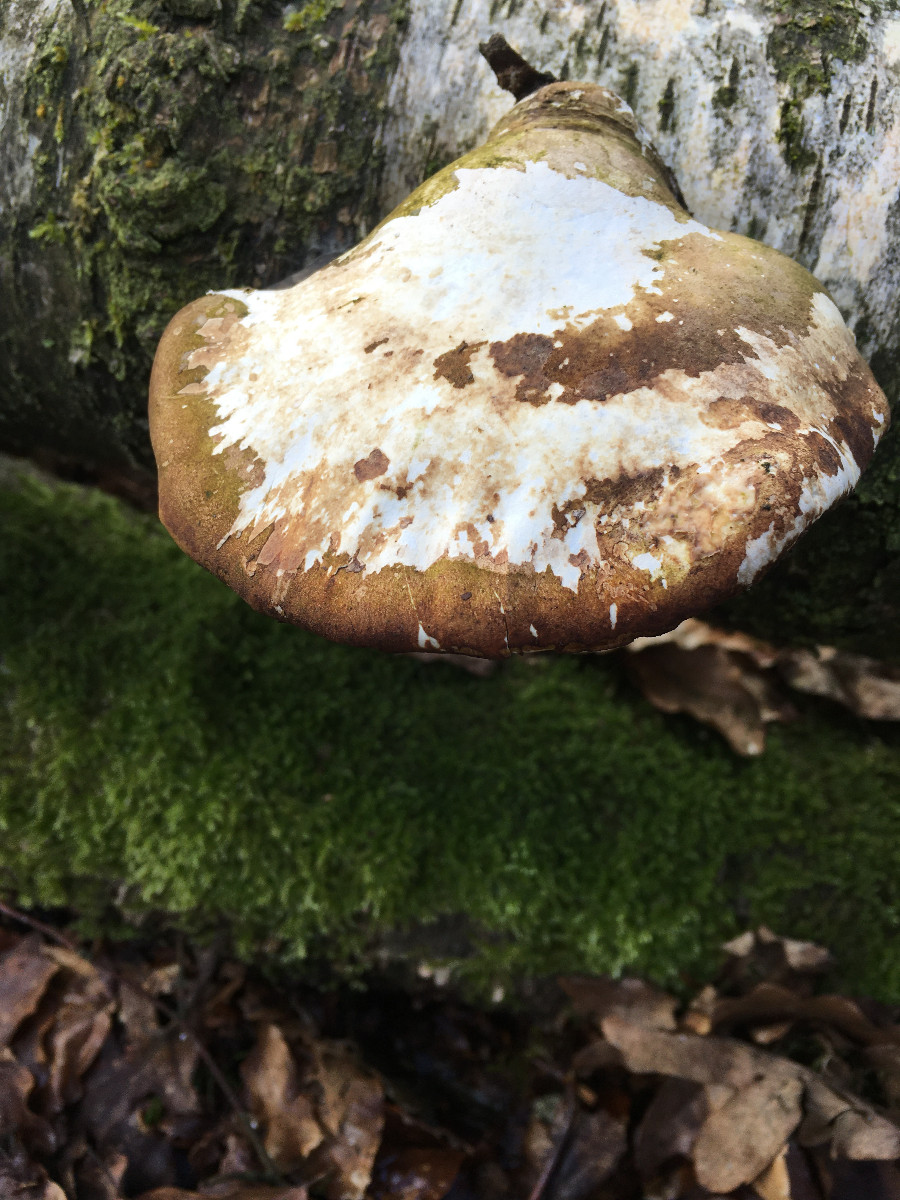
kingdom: Fungi
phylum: Basidiomycota
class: Agaricomycetes
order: Polyporales
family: Fomitopsidaceae
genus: Fomitopsis
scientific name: Fomitopsis betulina
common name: birkeporesvamp
